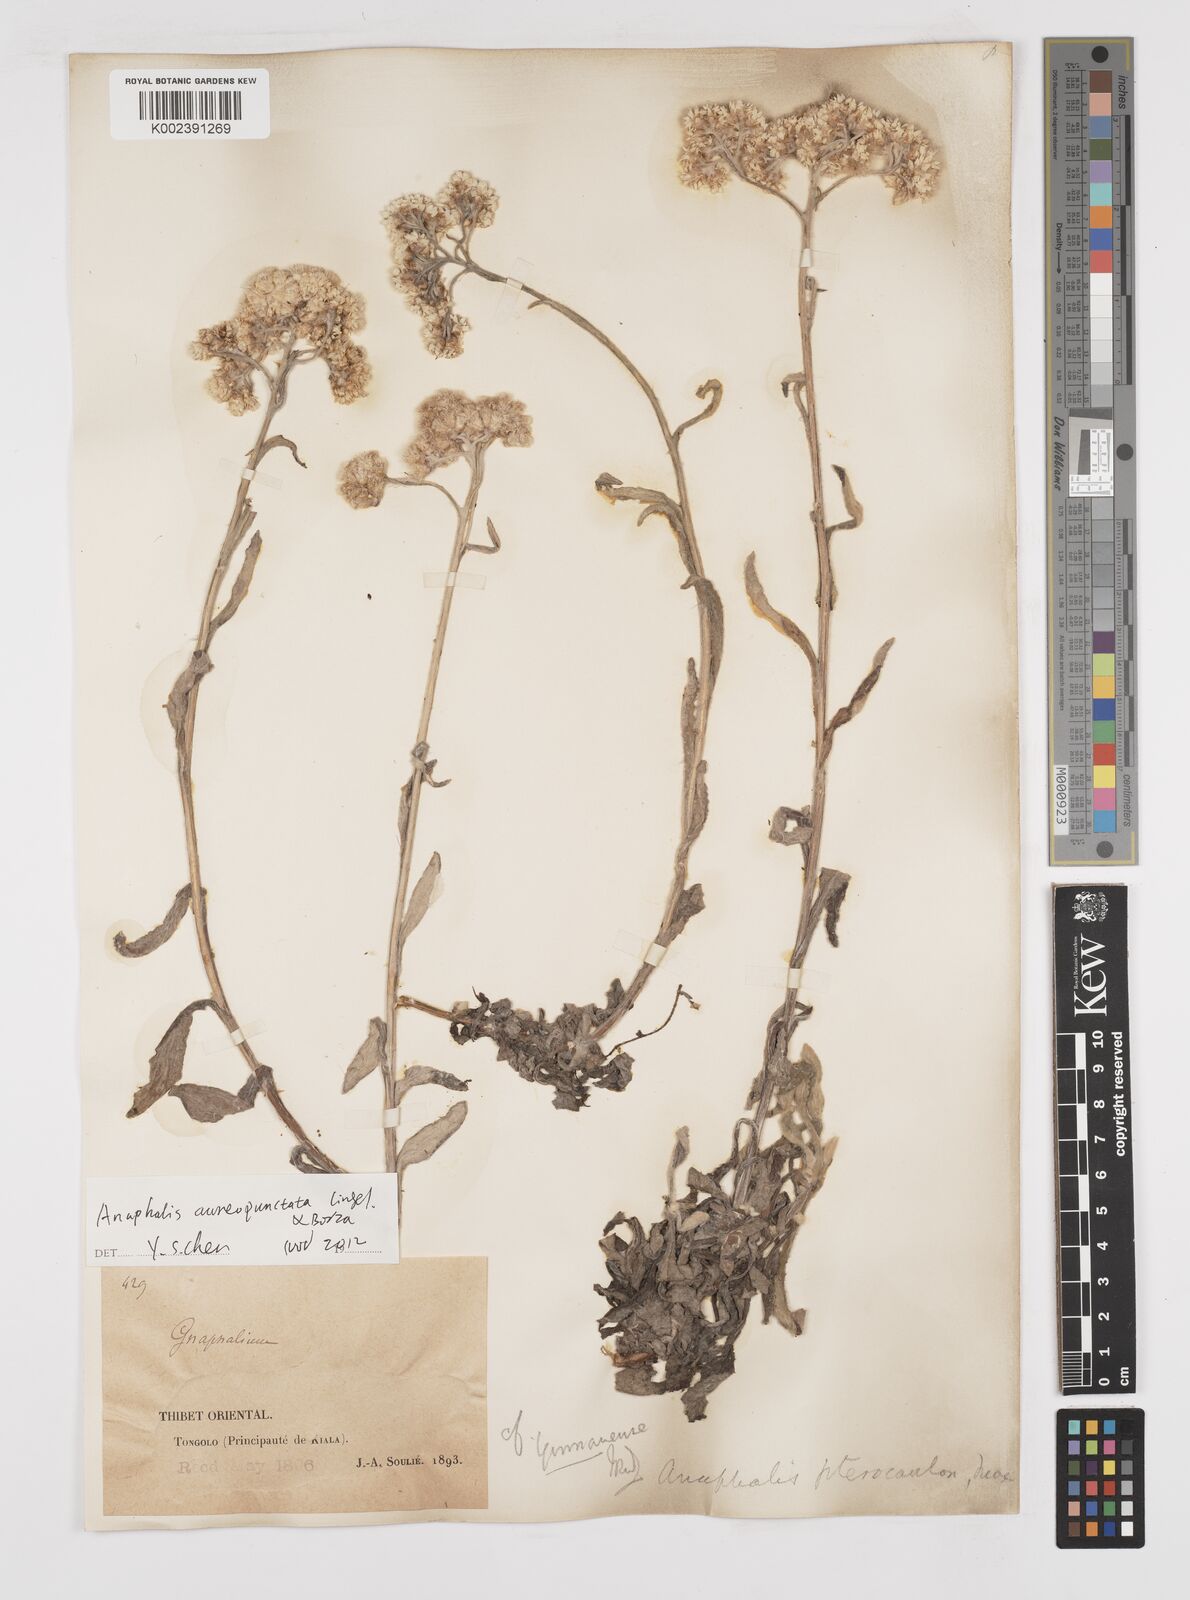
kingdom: Plantae
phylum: Tracheophyta
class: Magnoliopsida
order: Asterales
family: Asteraceae
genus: Anaphalis
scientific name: Anaphalis sinica
